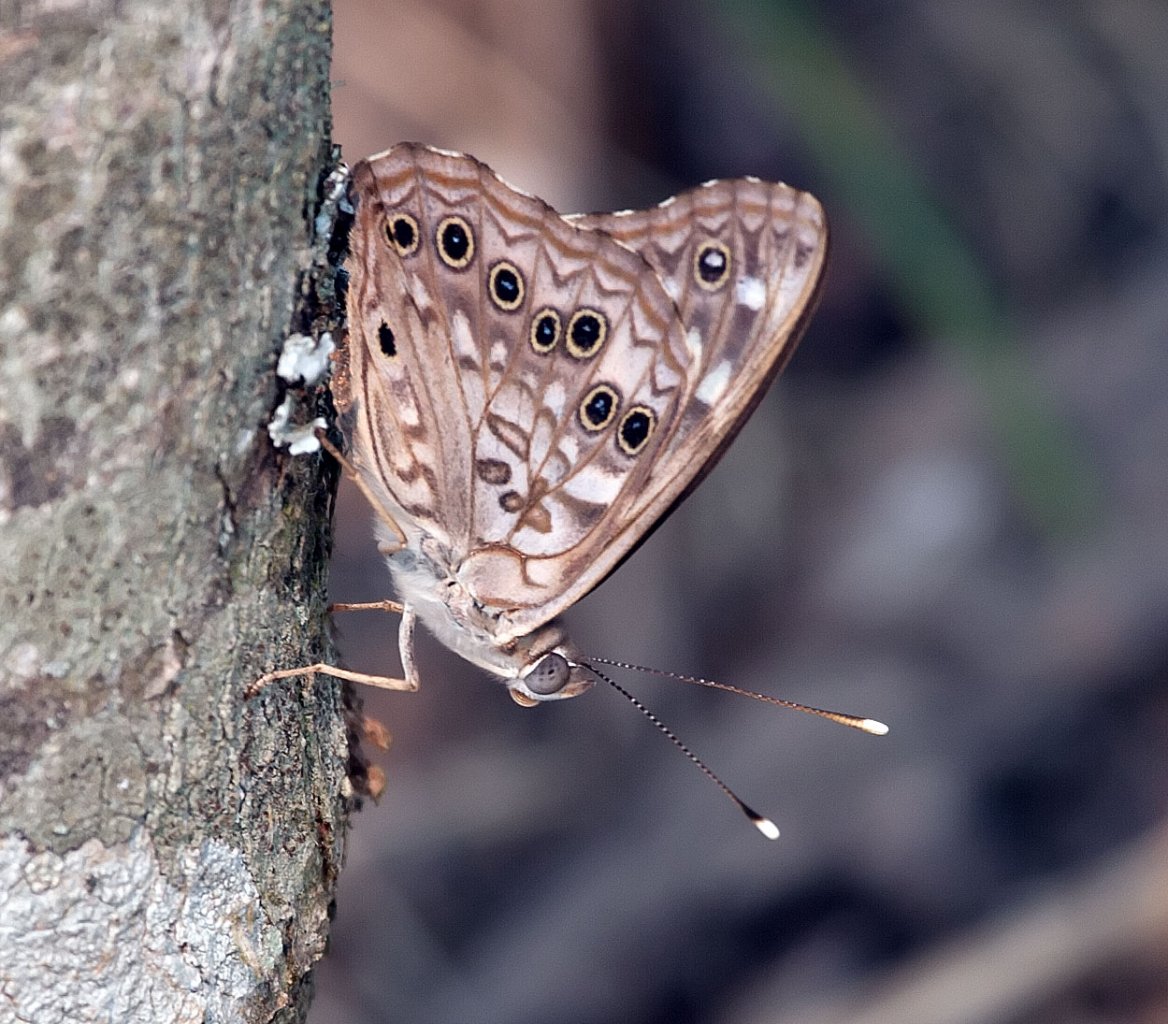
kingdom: Animalia
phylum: Arthropoda
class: Insecta
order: Lepidoptera
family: Nymphalidae
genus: Lethe
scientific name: Lethe anthedon
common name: Northern Pearly-Eye
